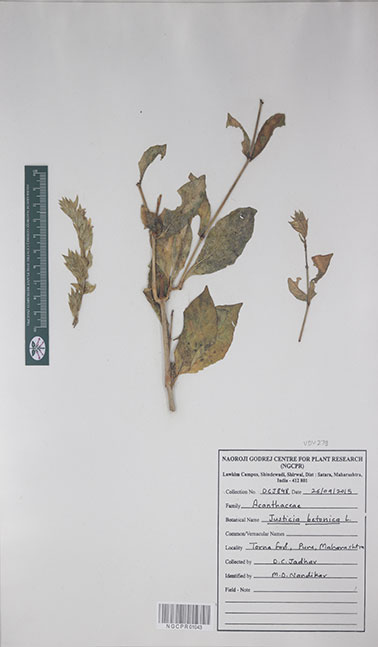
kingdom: Plantae
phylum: Tracheophyta
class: Magnoliopsida
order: Lamiales
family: Acanthaceae
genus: Nicoteba
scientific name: Nicoteba betonica
